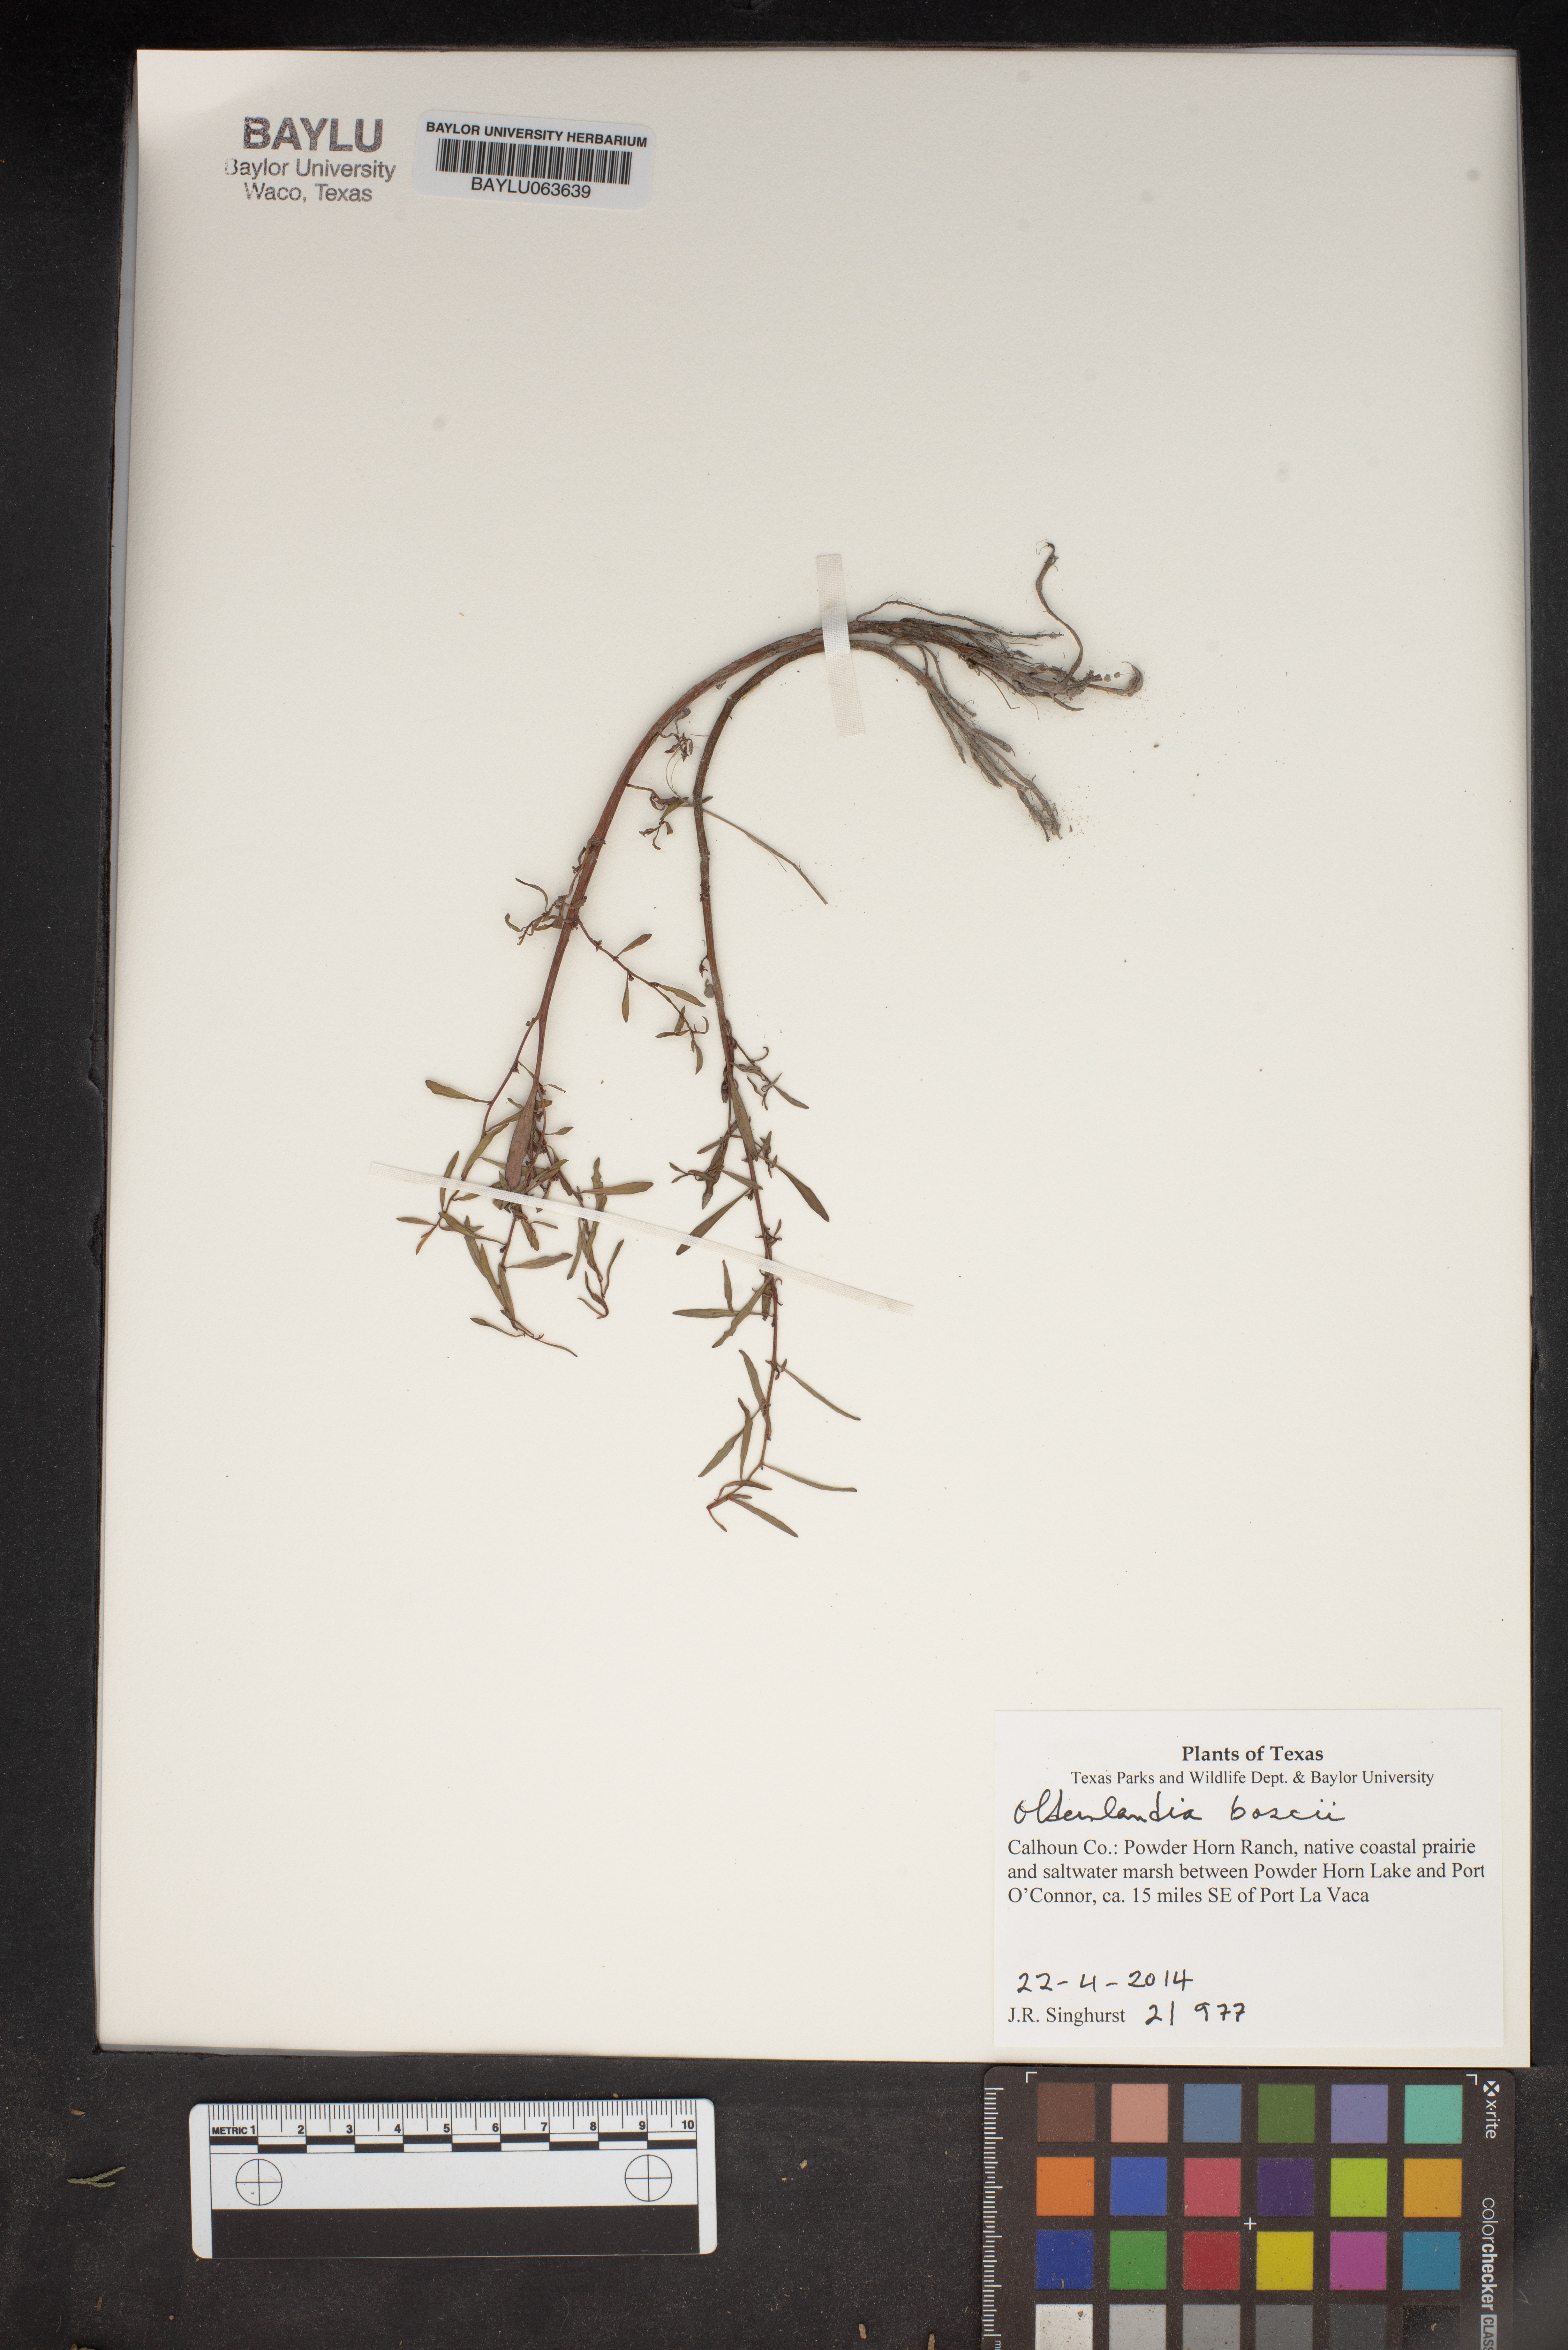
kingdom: Plantae
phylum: Tracheophyta
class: Magnoliopsida
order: Gentianales
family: Rubiaceae
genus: Oldenlandia
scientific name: Oldenlandia boscii
